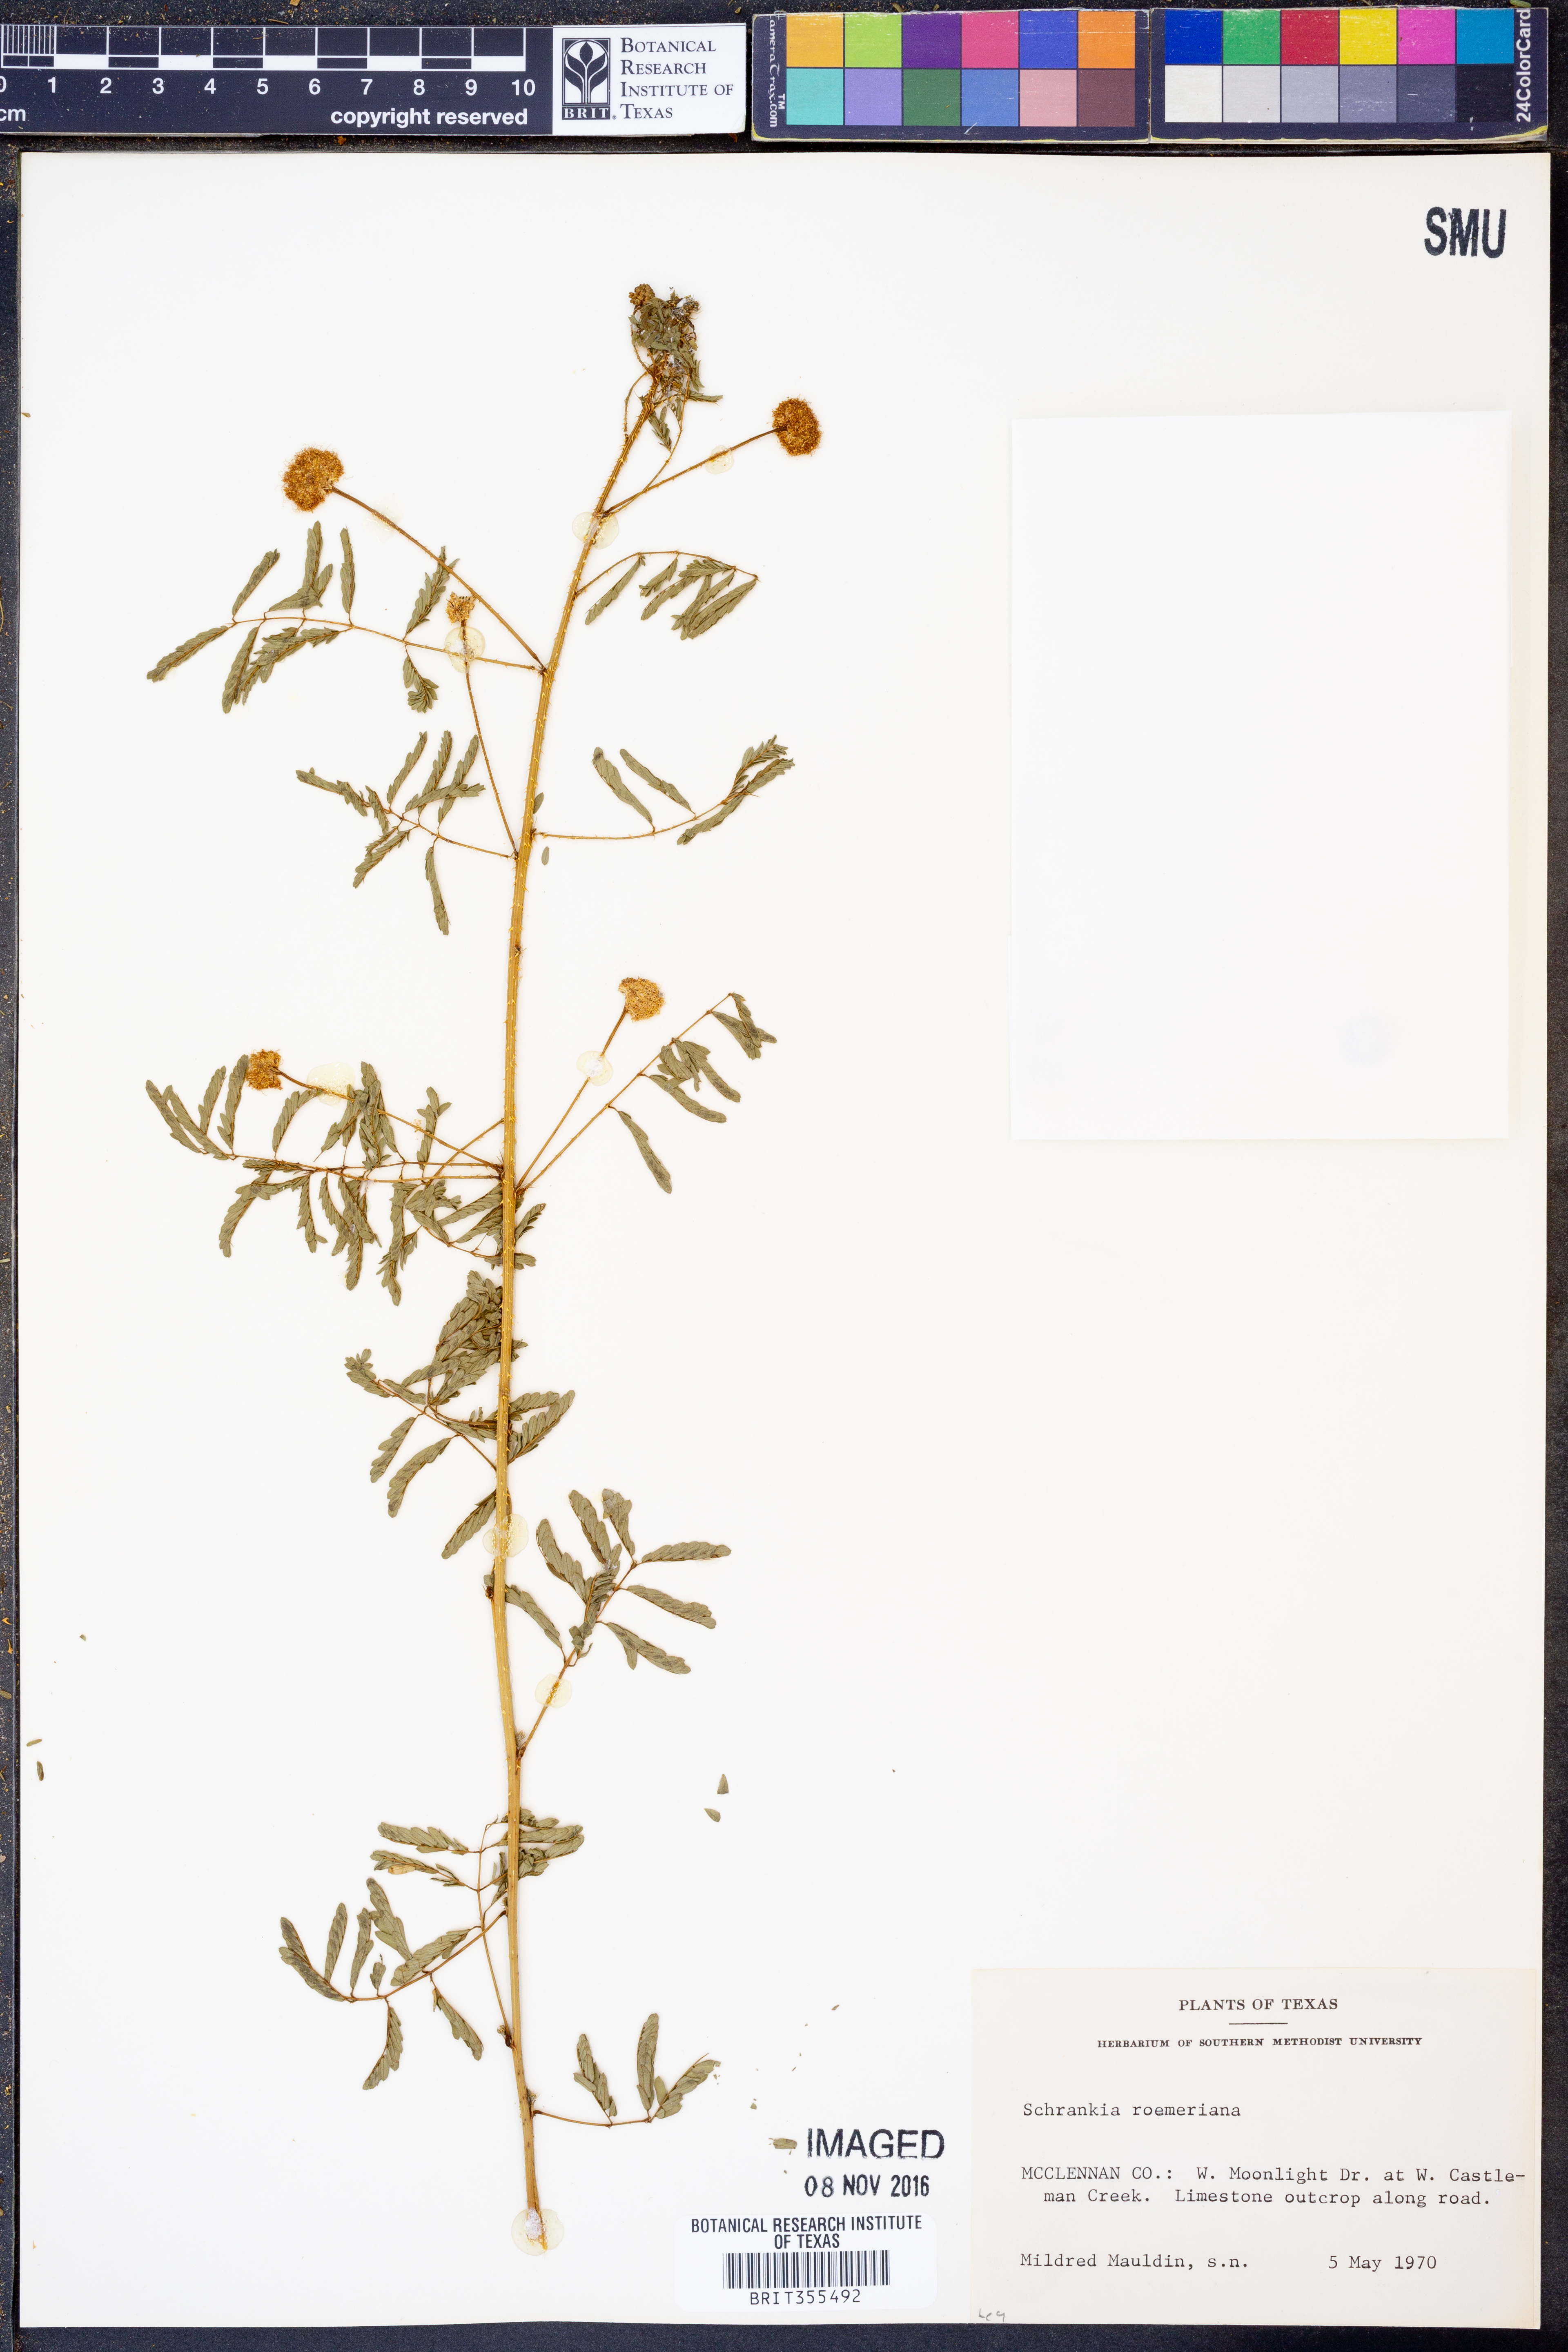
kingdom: Plantae
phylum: Tracheophyta
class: Magnoliopsida
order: Fabales
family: Fabaceae
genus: Mimosa
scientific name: Mimosa quadrivalvis
